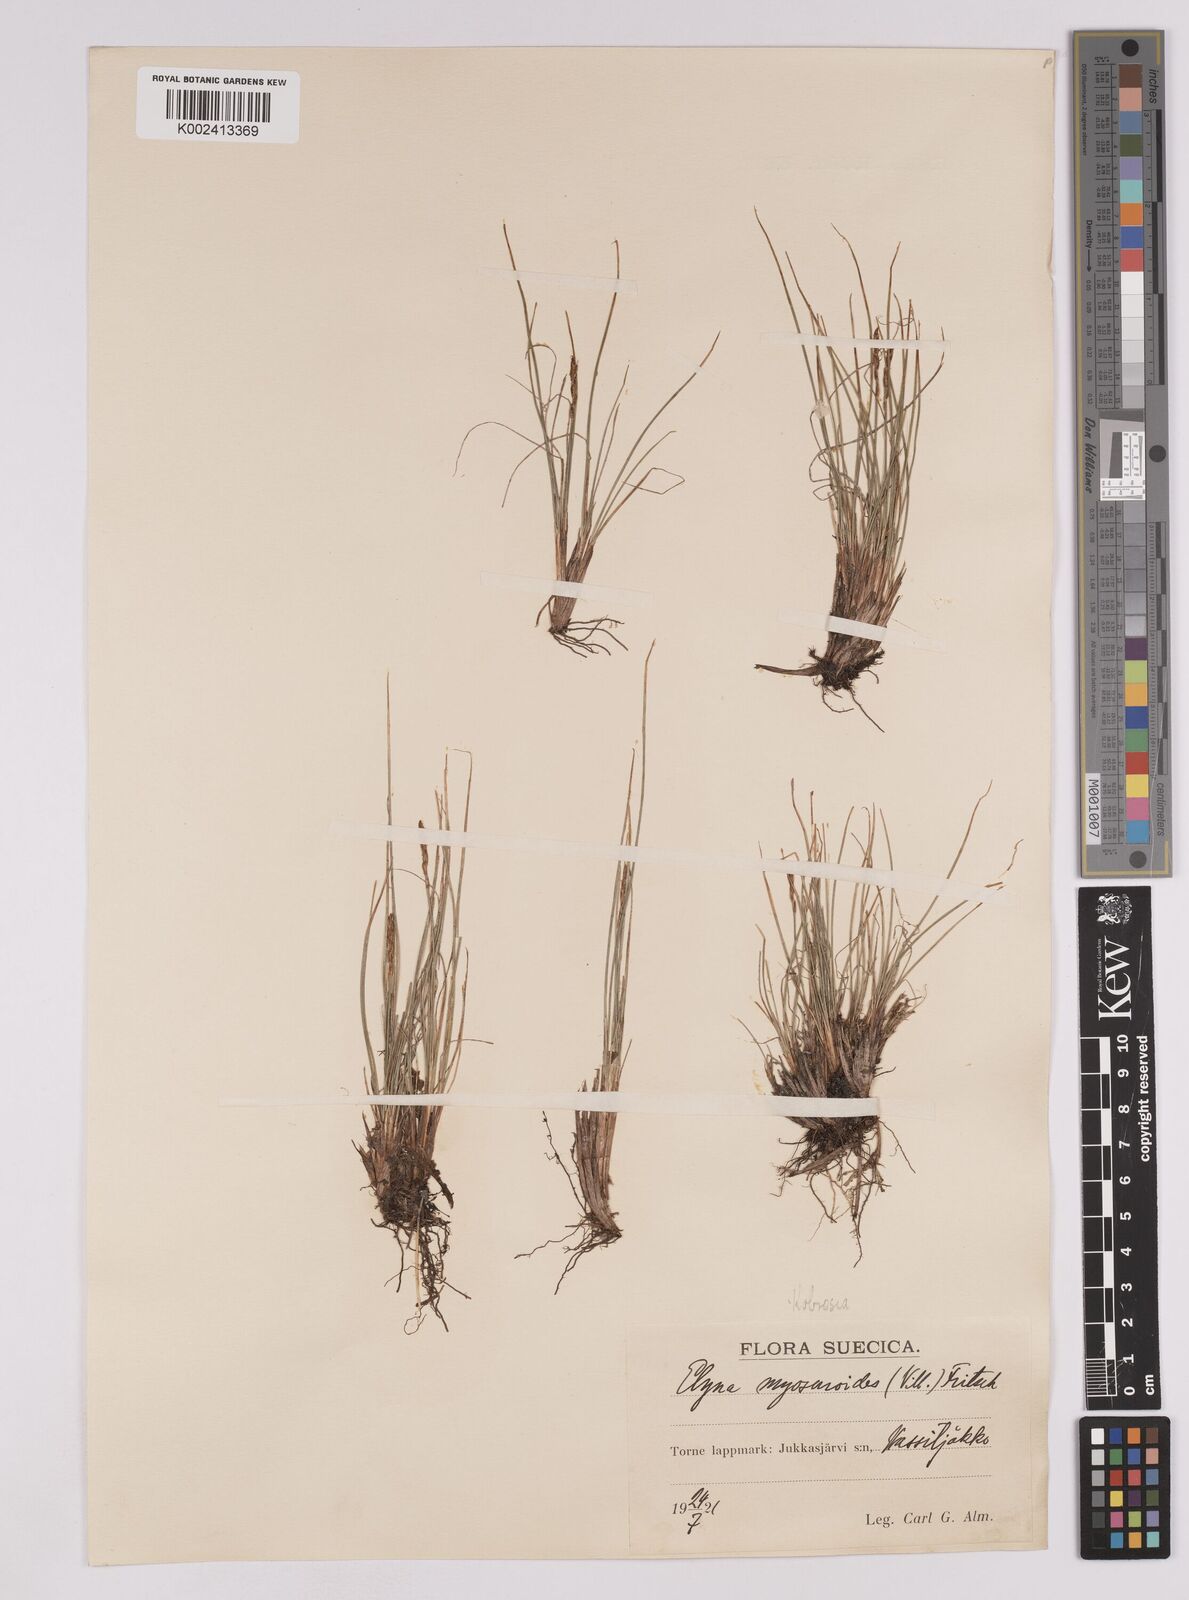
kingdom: Plantae
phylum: Tracheophyta
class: Liliopsida
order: Poales
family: Cyperaceae
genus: Carex
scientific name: Carex myosuroides
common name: Bellard's bog sedge
